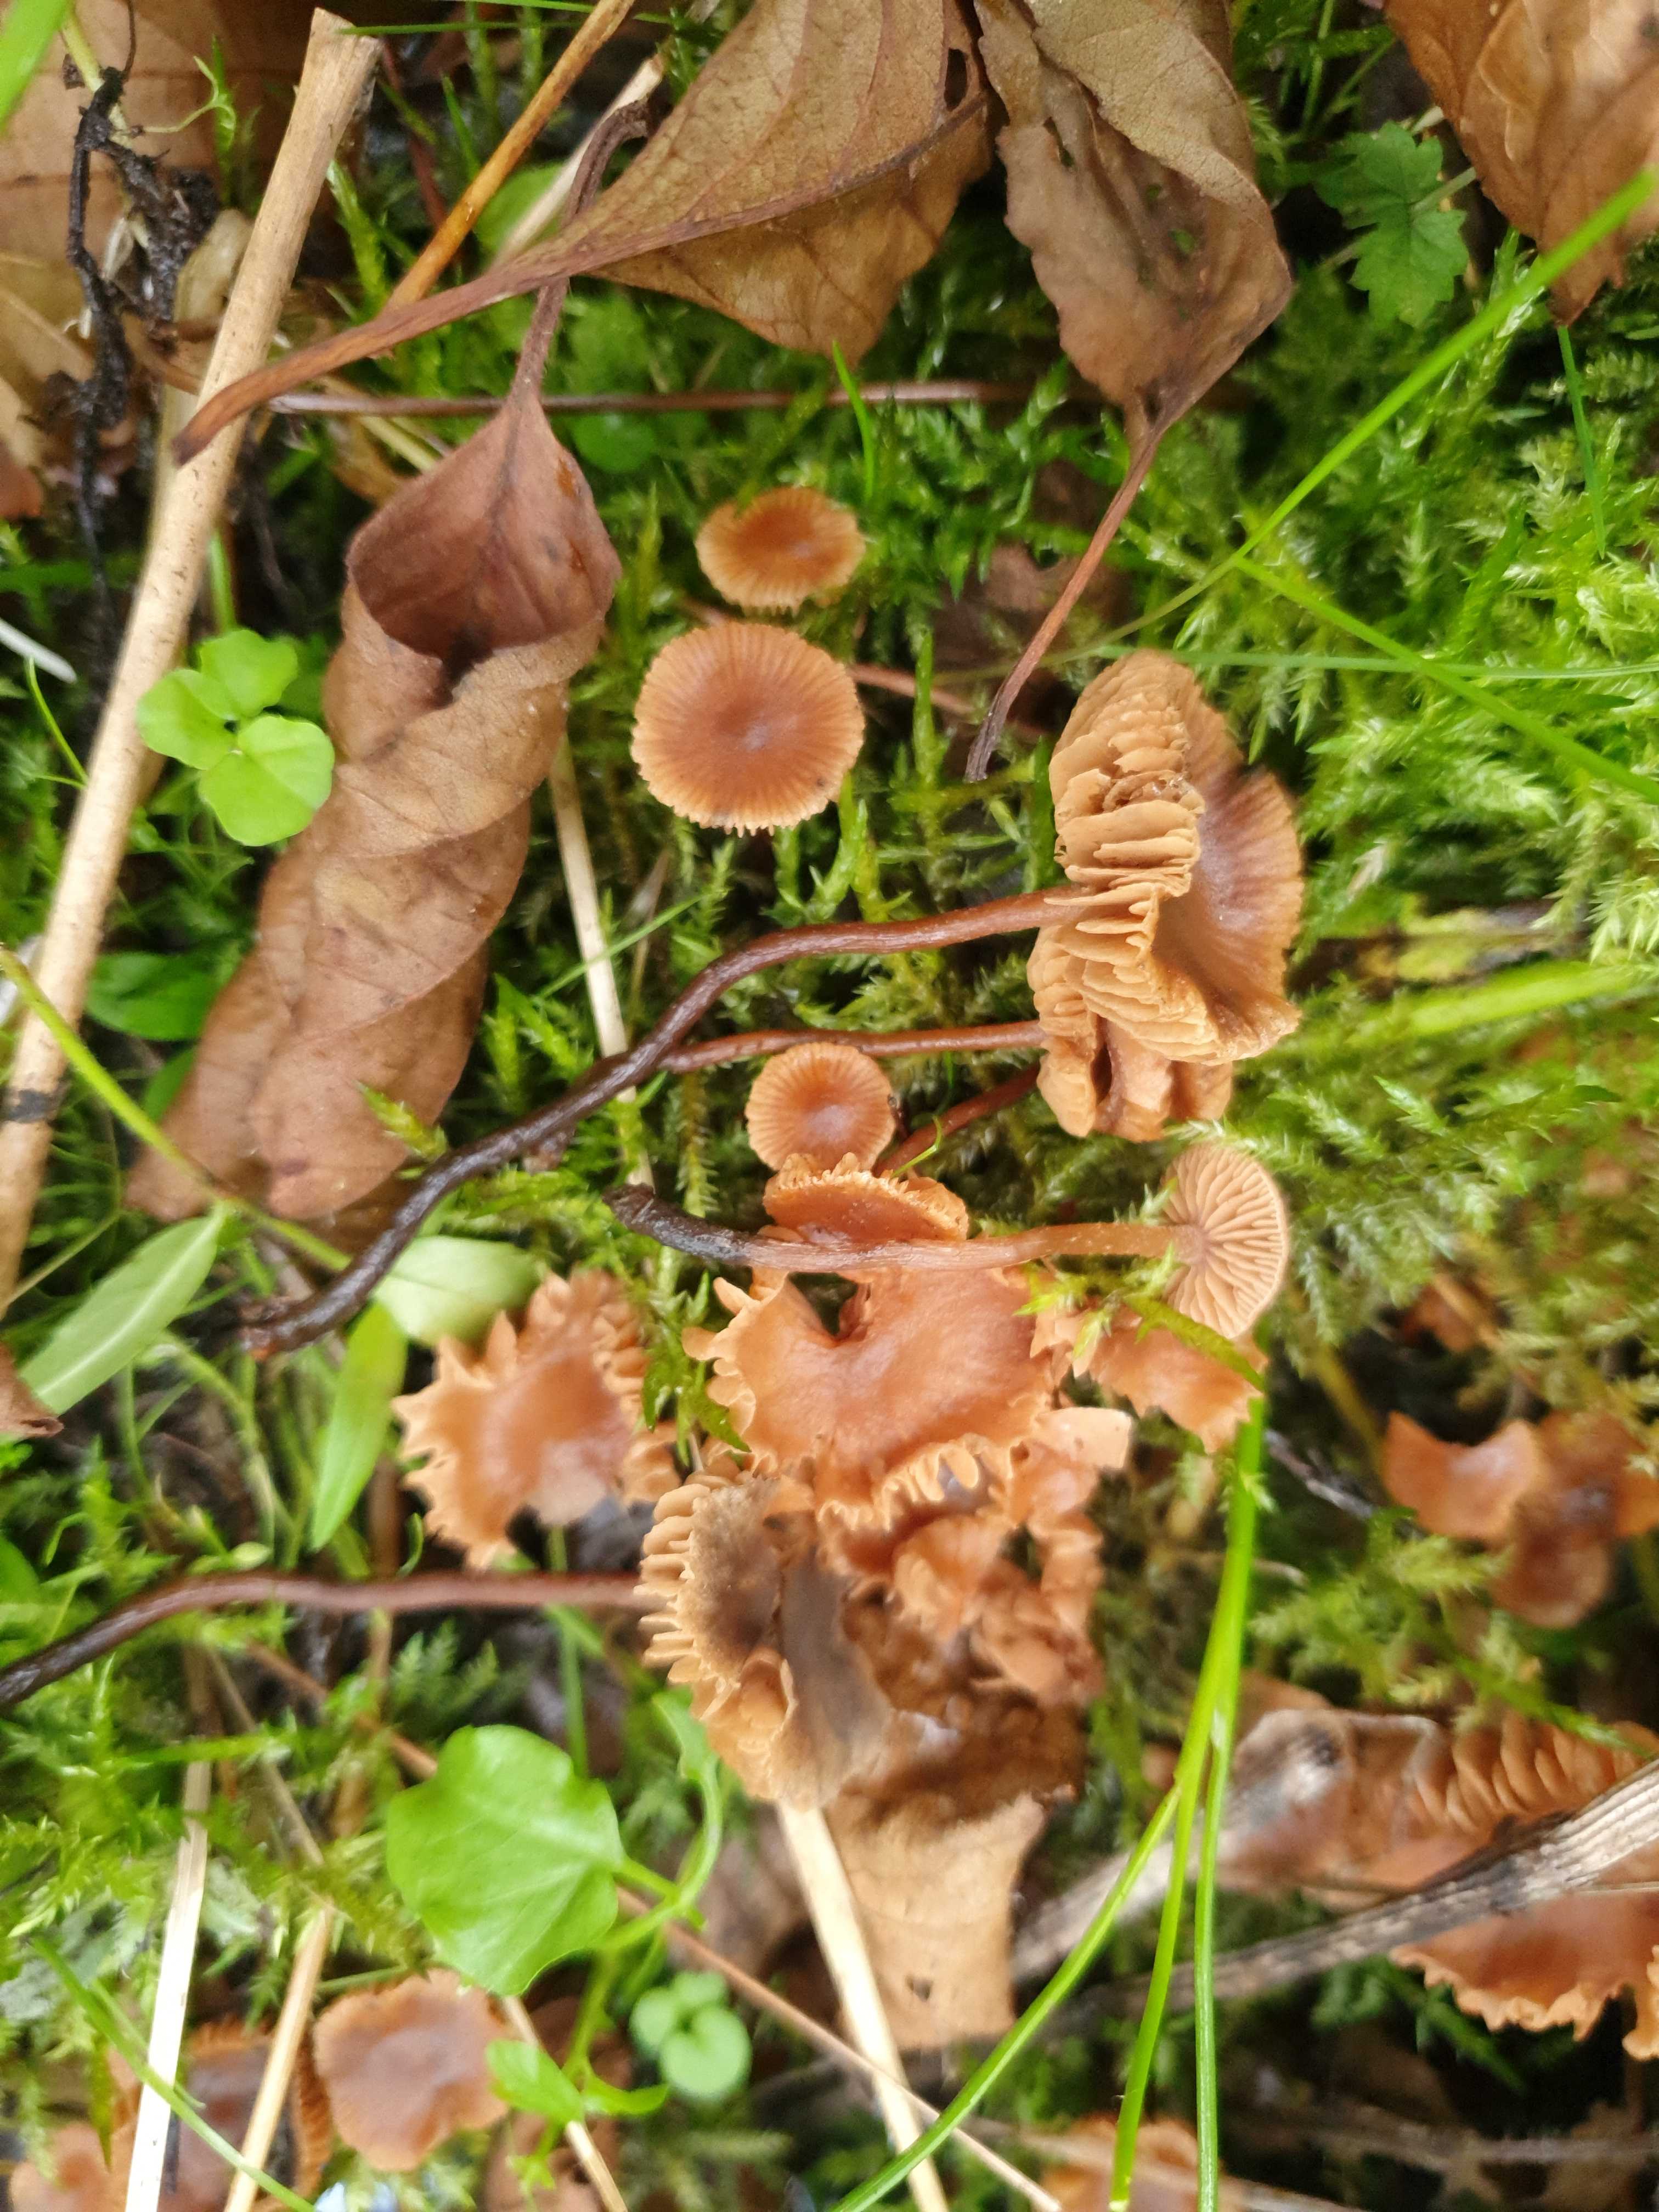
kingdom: Fungi
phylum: Basidiomycota
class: Agaricomycetes
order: Agaricales
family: Hymenogastraceae
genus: Naucoria
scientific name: Naucoria scolecina
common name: mørk elle-knaphat
